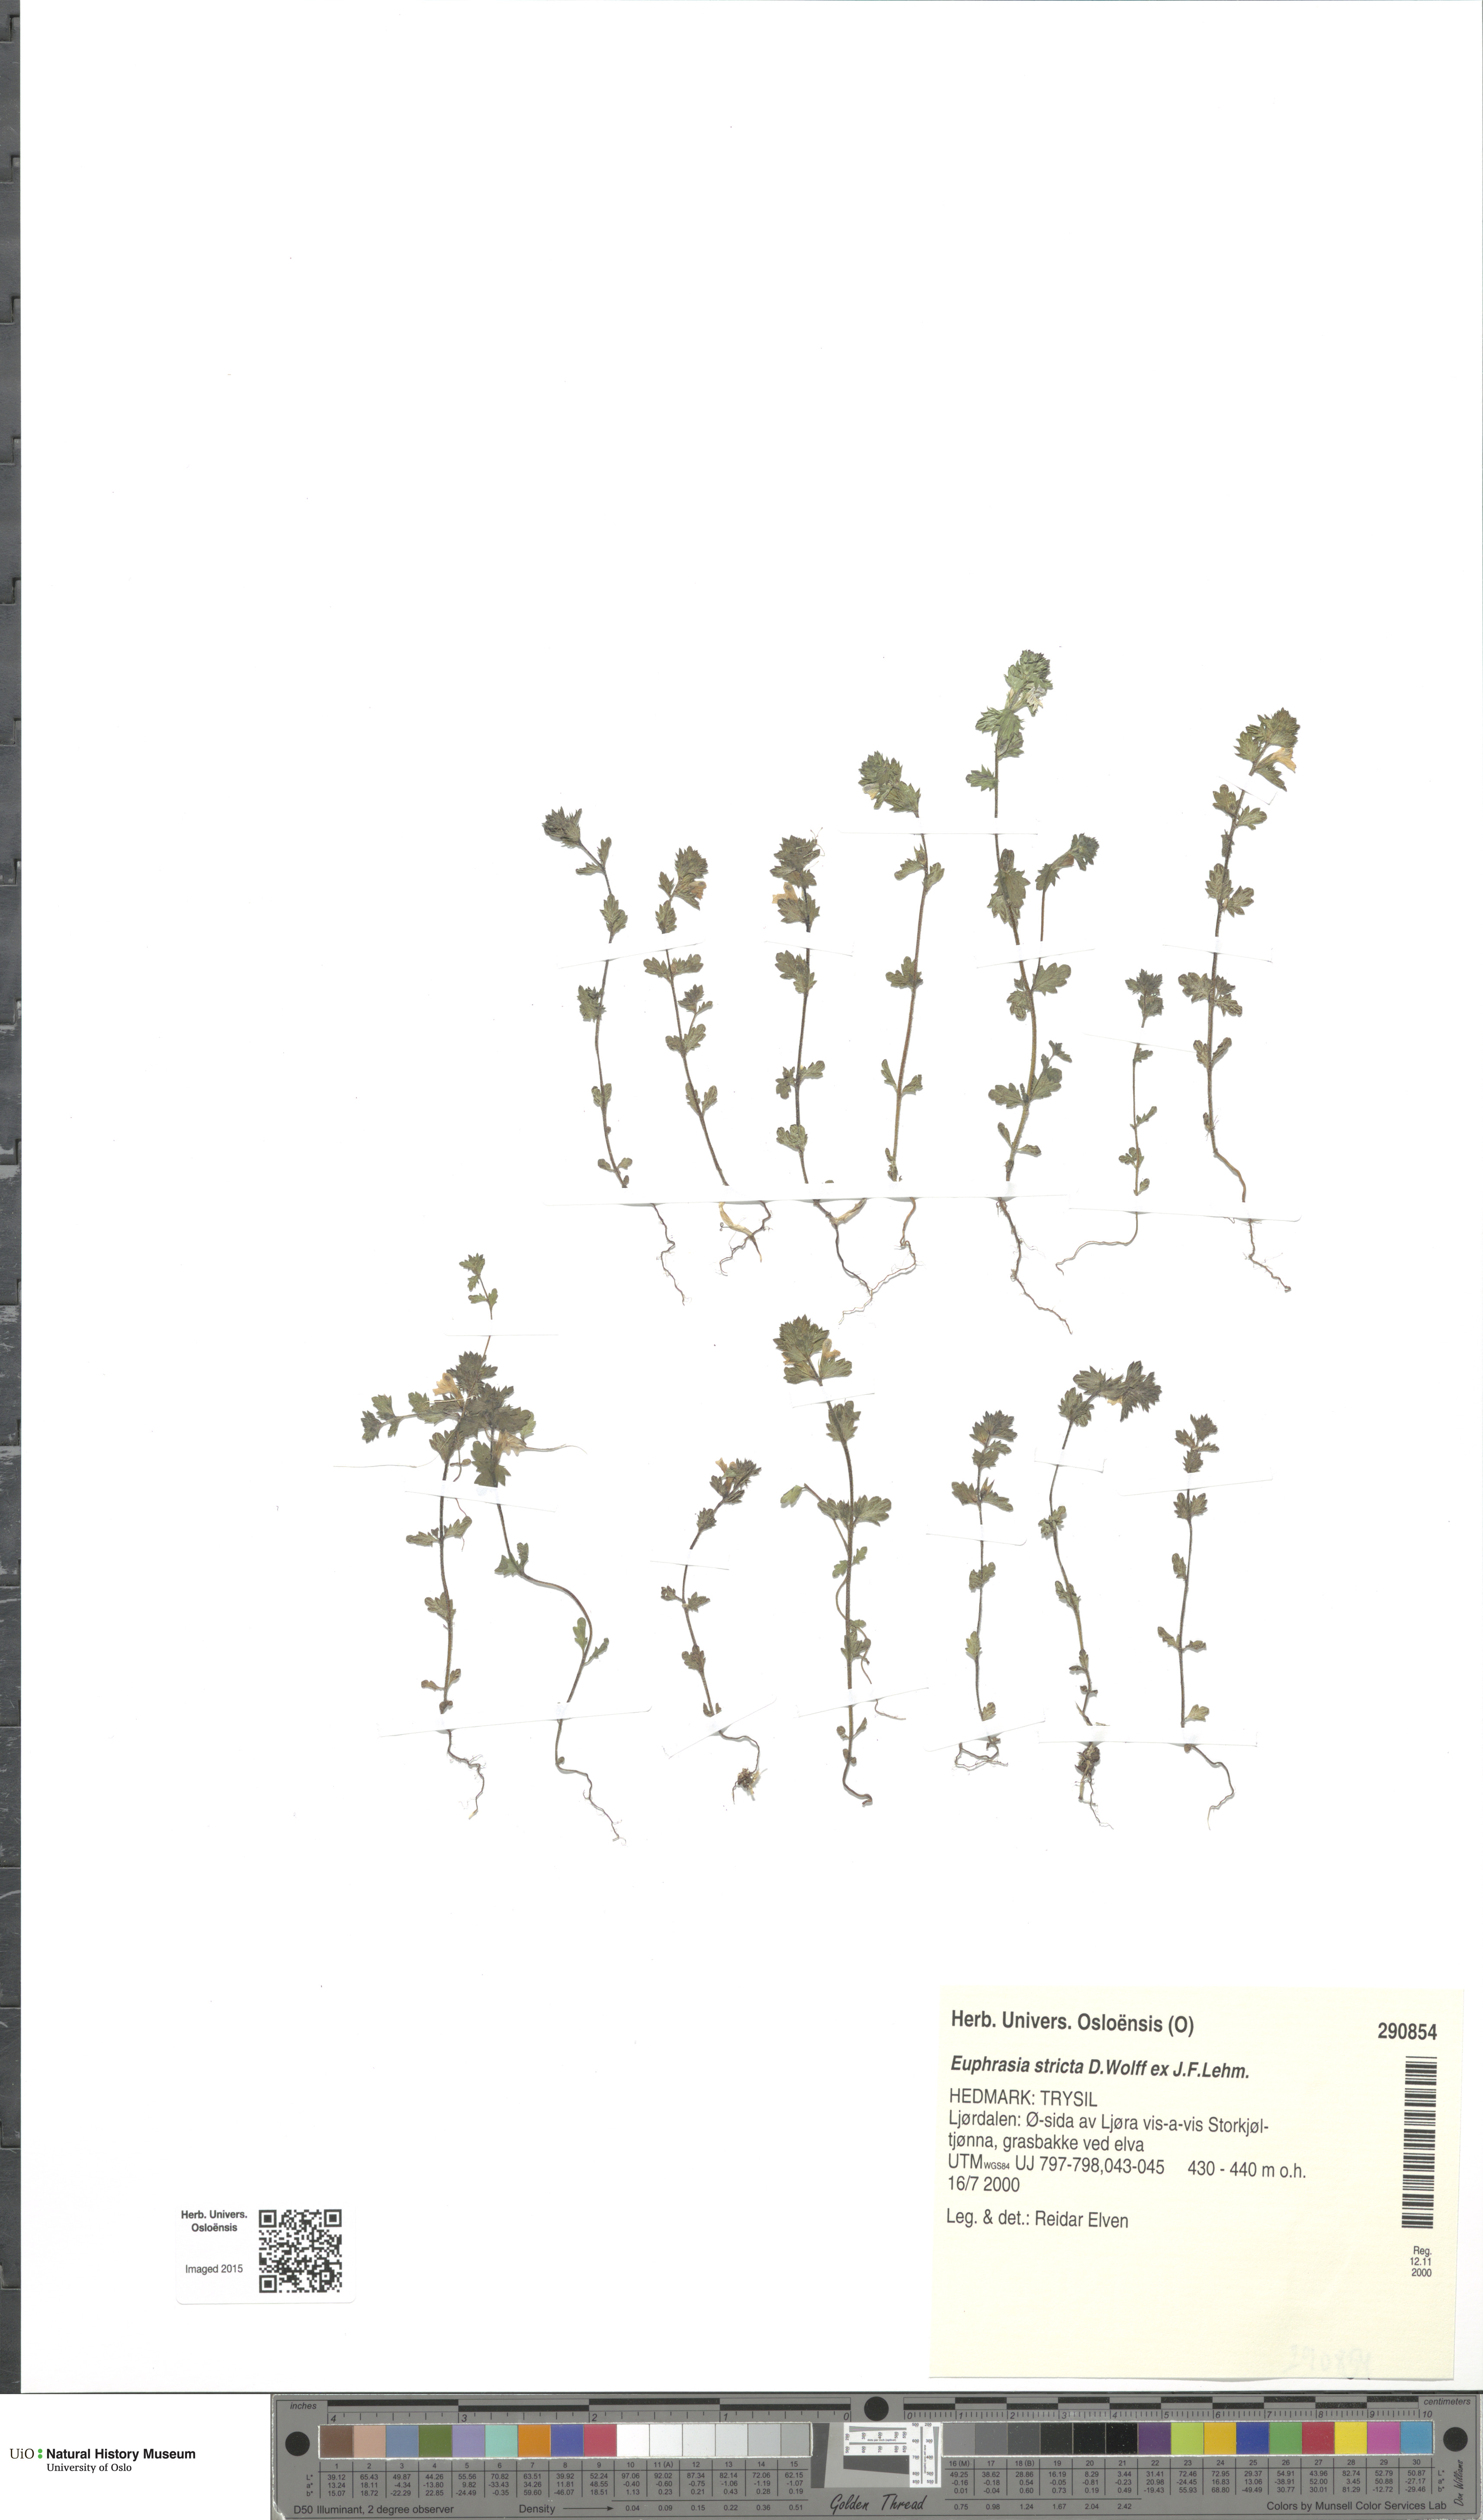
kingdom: Plantae
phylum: Tracheophyta
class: Magnoliopsida
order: Lamiales
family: Orobanchaceae
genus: Euphrasia
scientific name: Euphrasia stricta
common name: Drug eyebright
